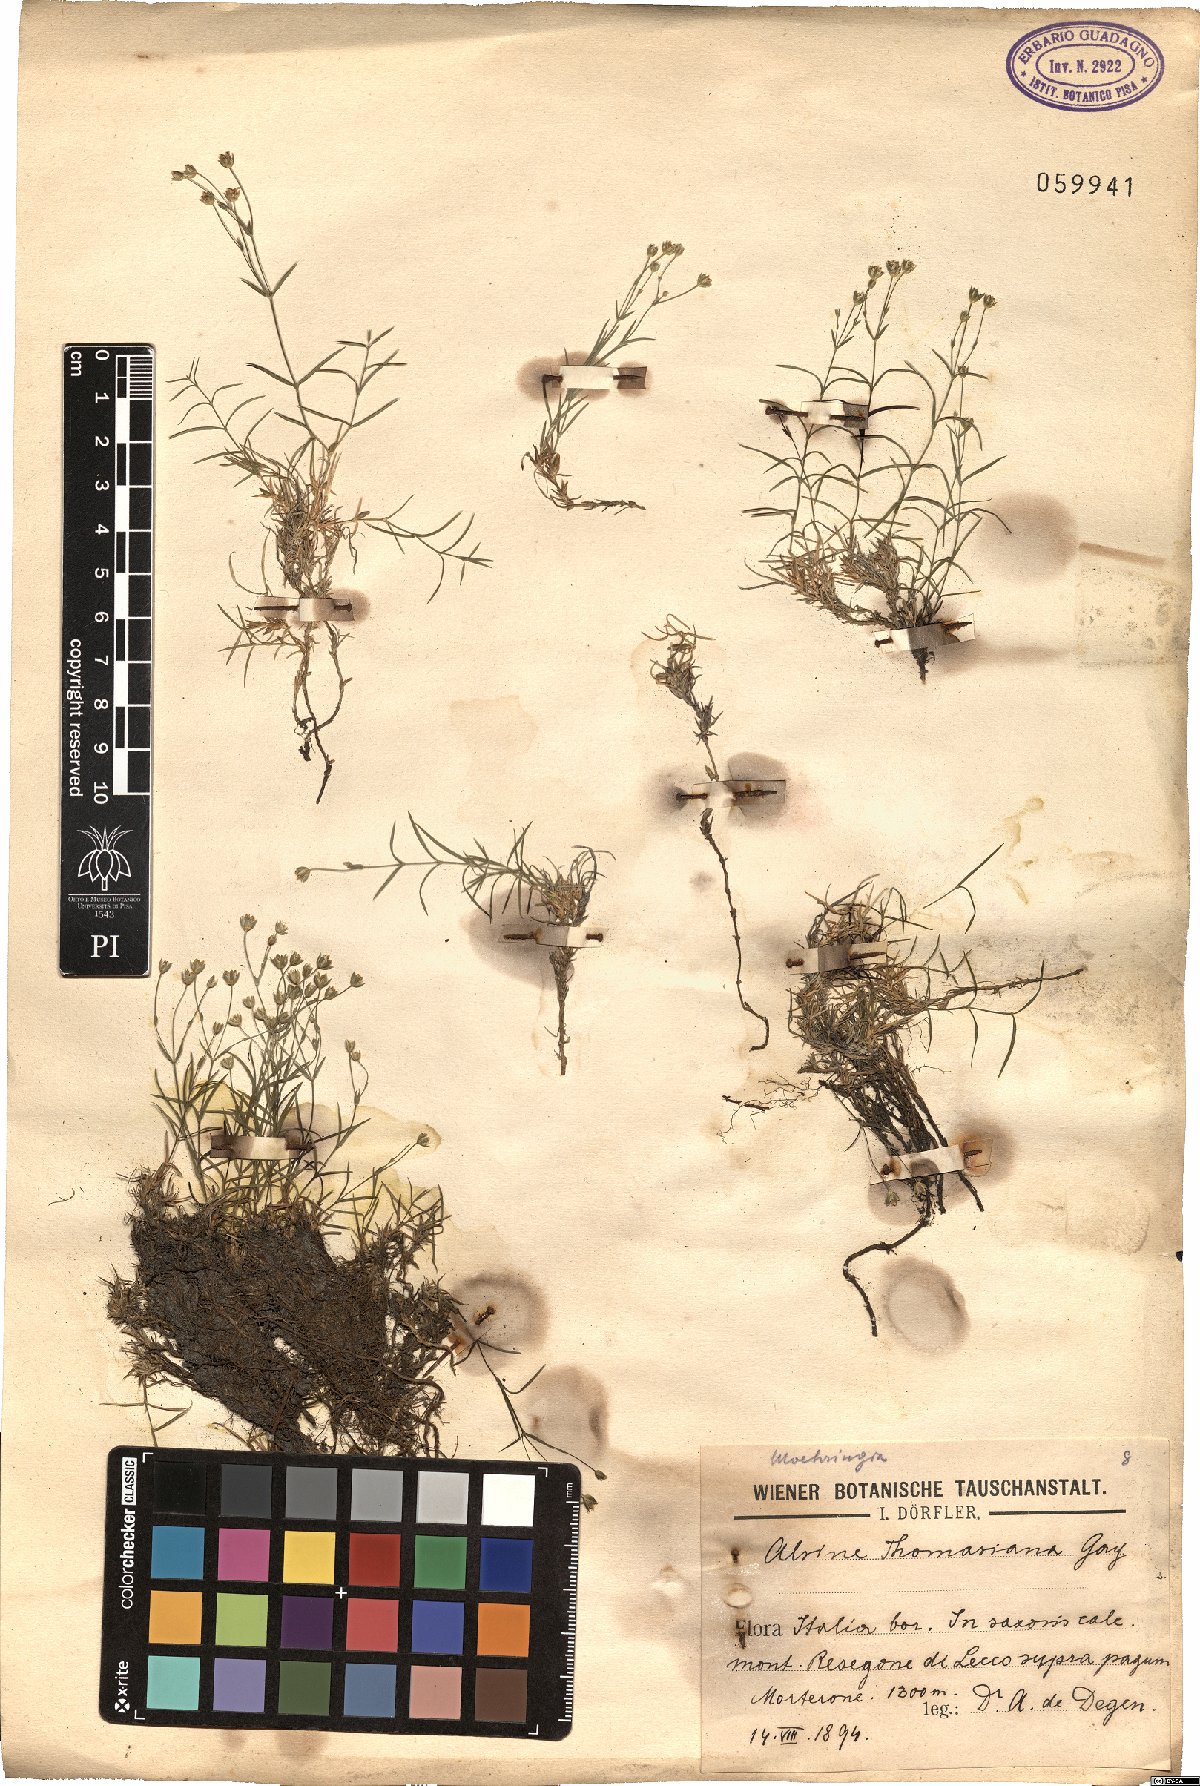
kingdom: Plantae
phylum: Tracheophyta
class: Magnoliopsida
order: Caryophyllales
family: Caryophyllaceae
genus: Facchinia
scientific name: Facchinia grignensis
